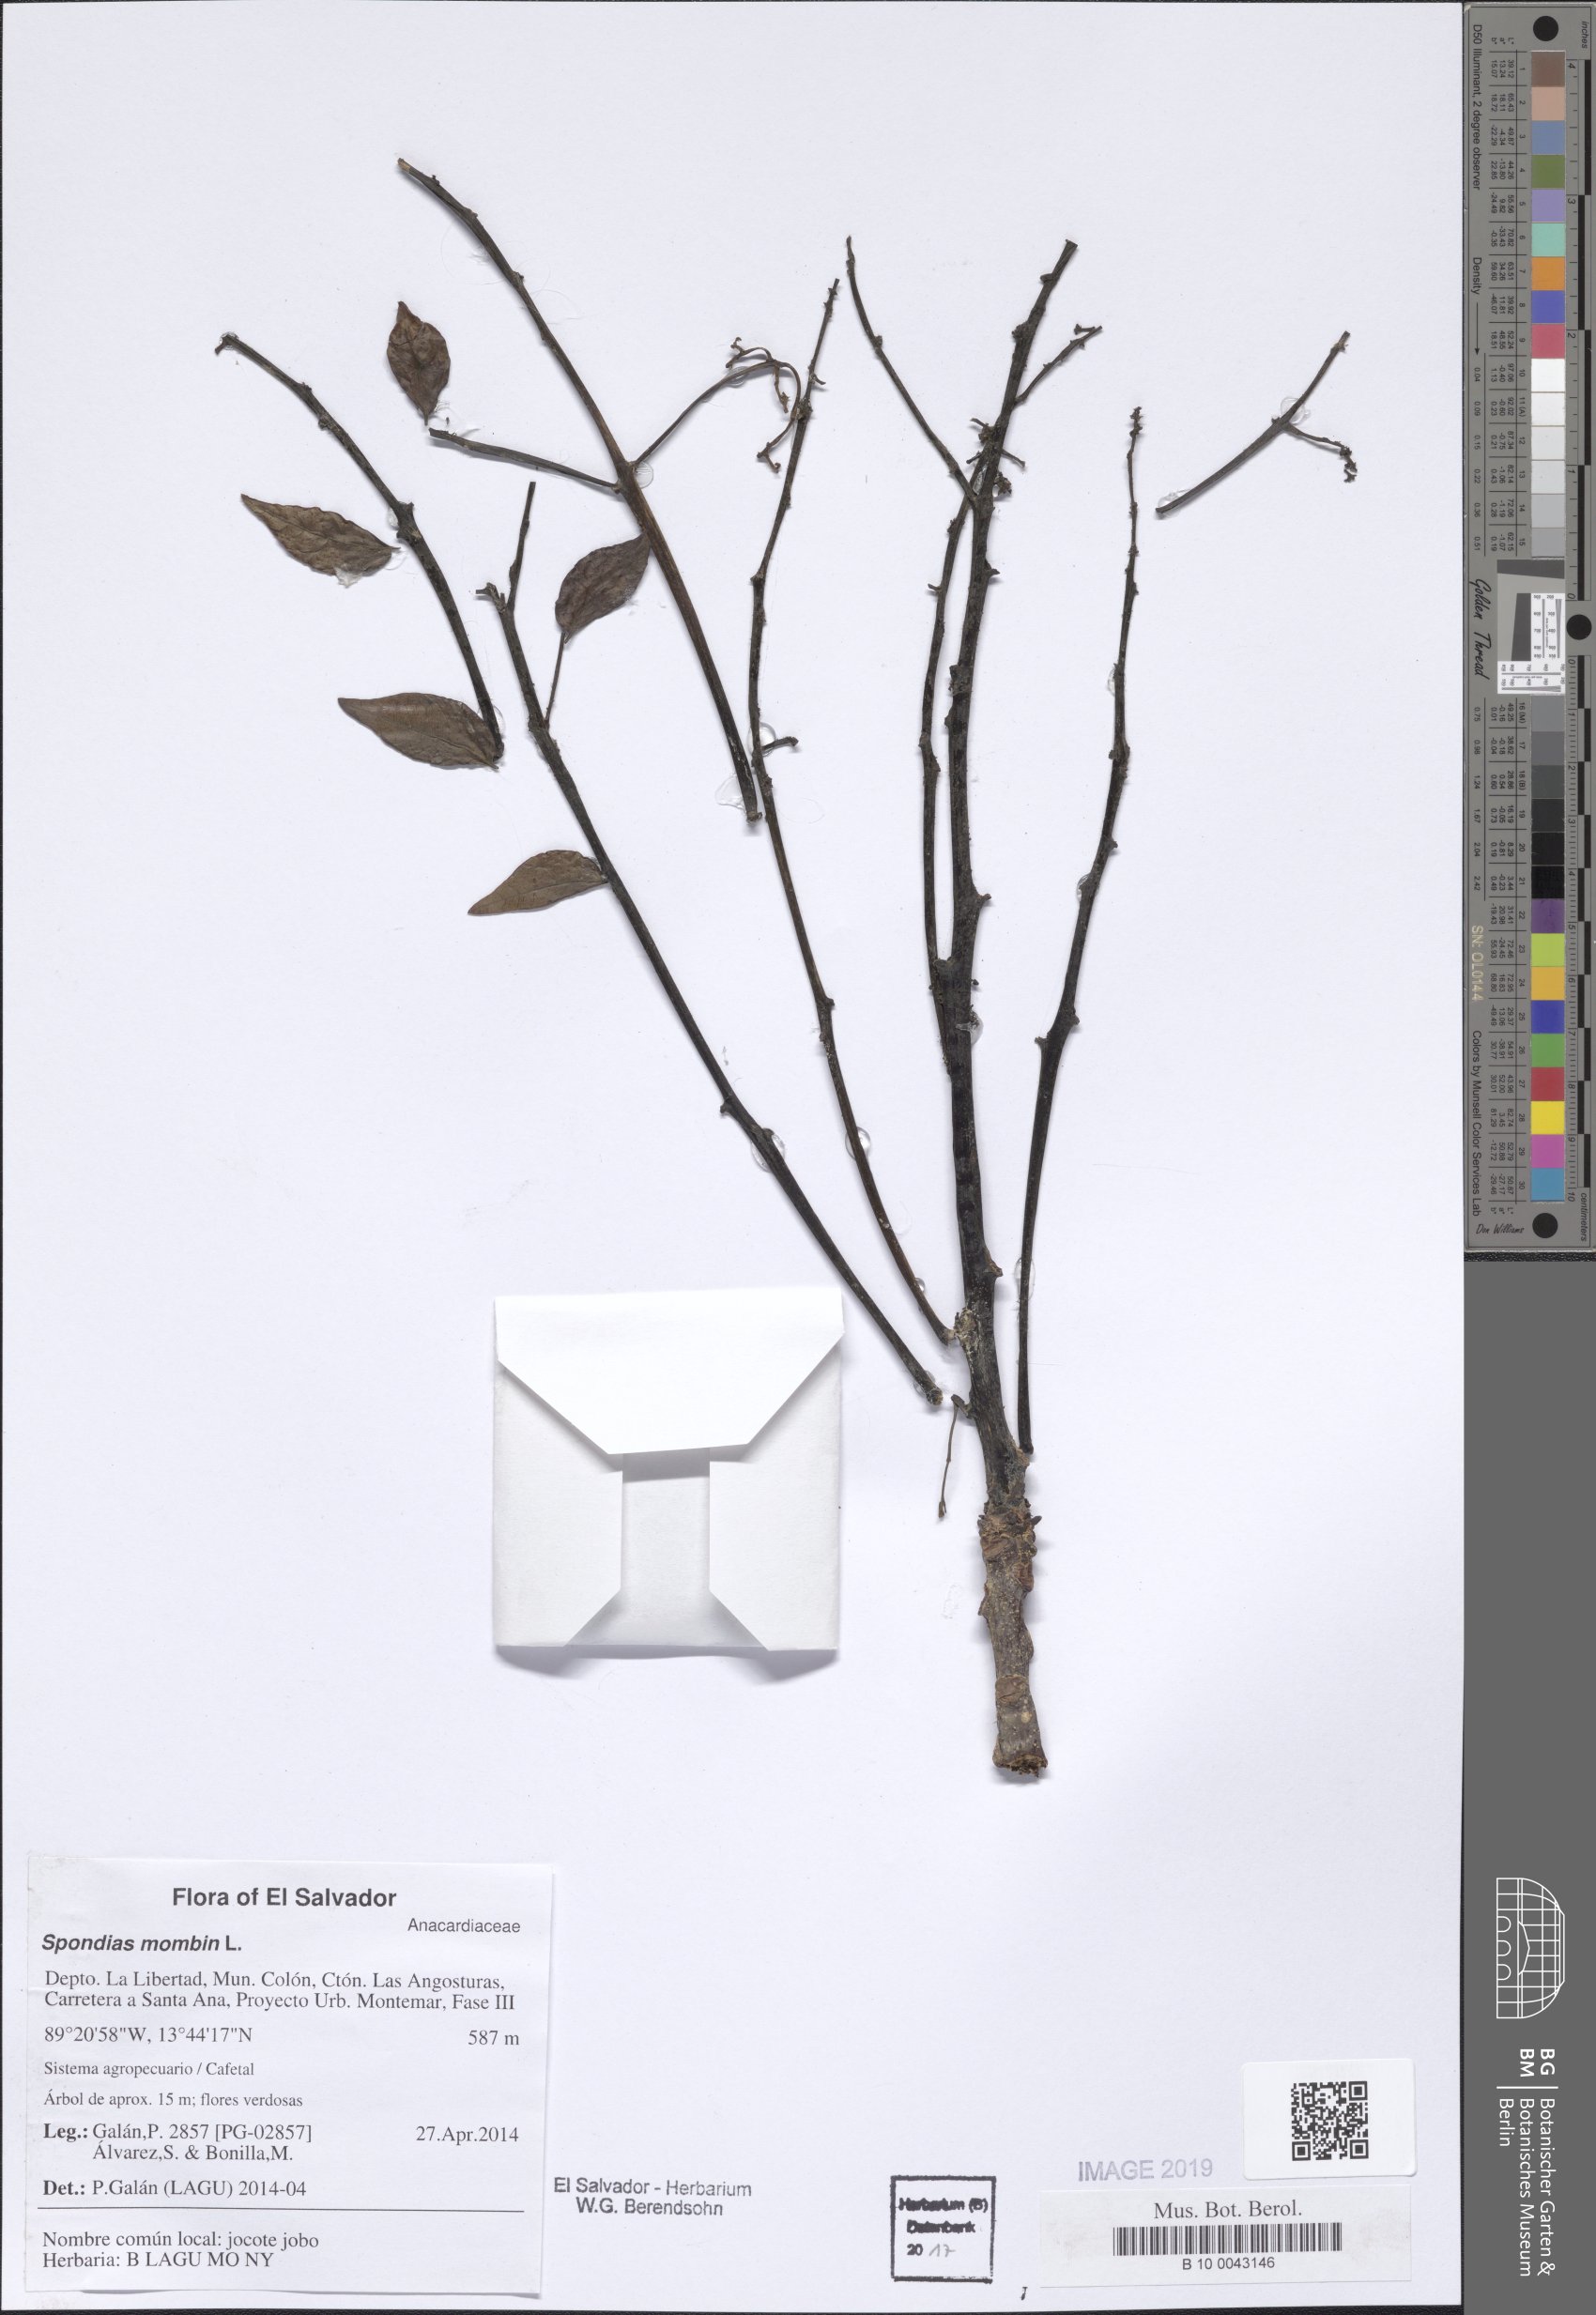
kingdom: Plantae
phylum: Tracheophyta
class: Magnoliopsida
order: Sapindales
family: Anacardiaceae
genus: Spondias
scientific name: Spondias radlkoferi
